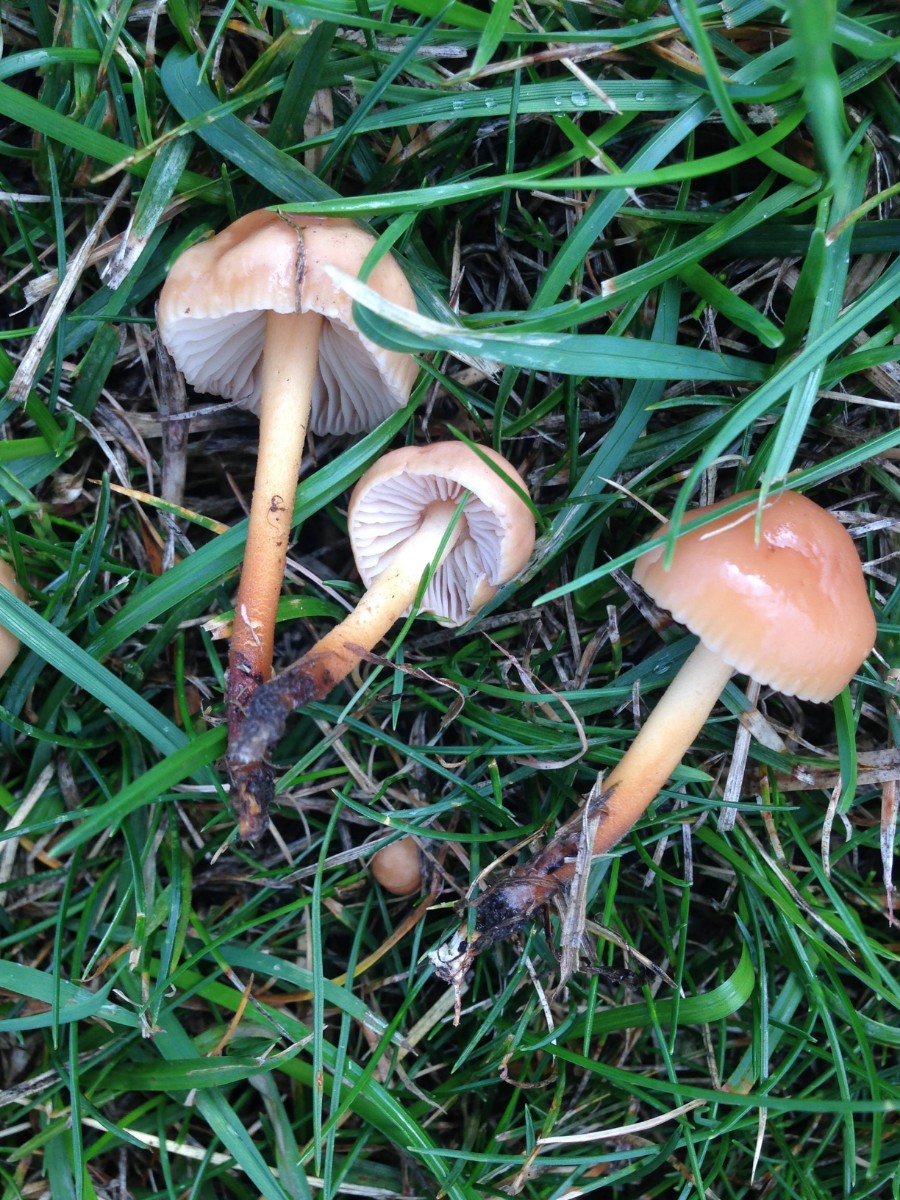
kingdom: Fungi
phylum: Basidiomycota
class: Agaricomycetes
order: Agaricales
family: Marasmiaceae
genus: Marasmius
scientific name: Marasmius oreades
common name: elledans-bruskhat
